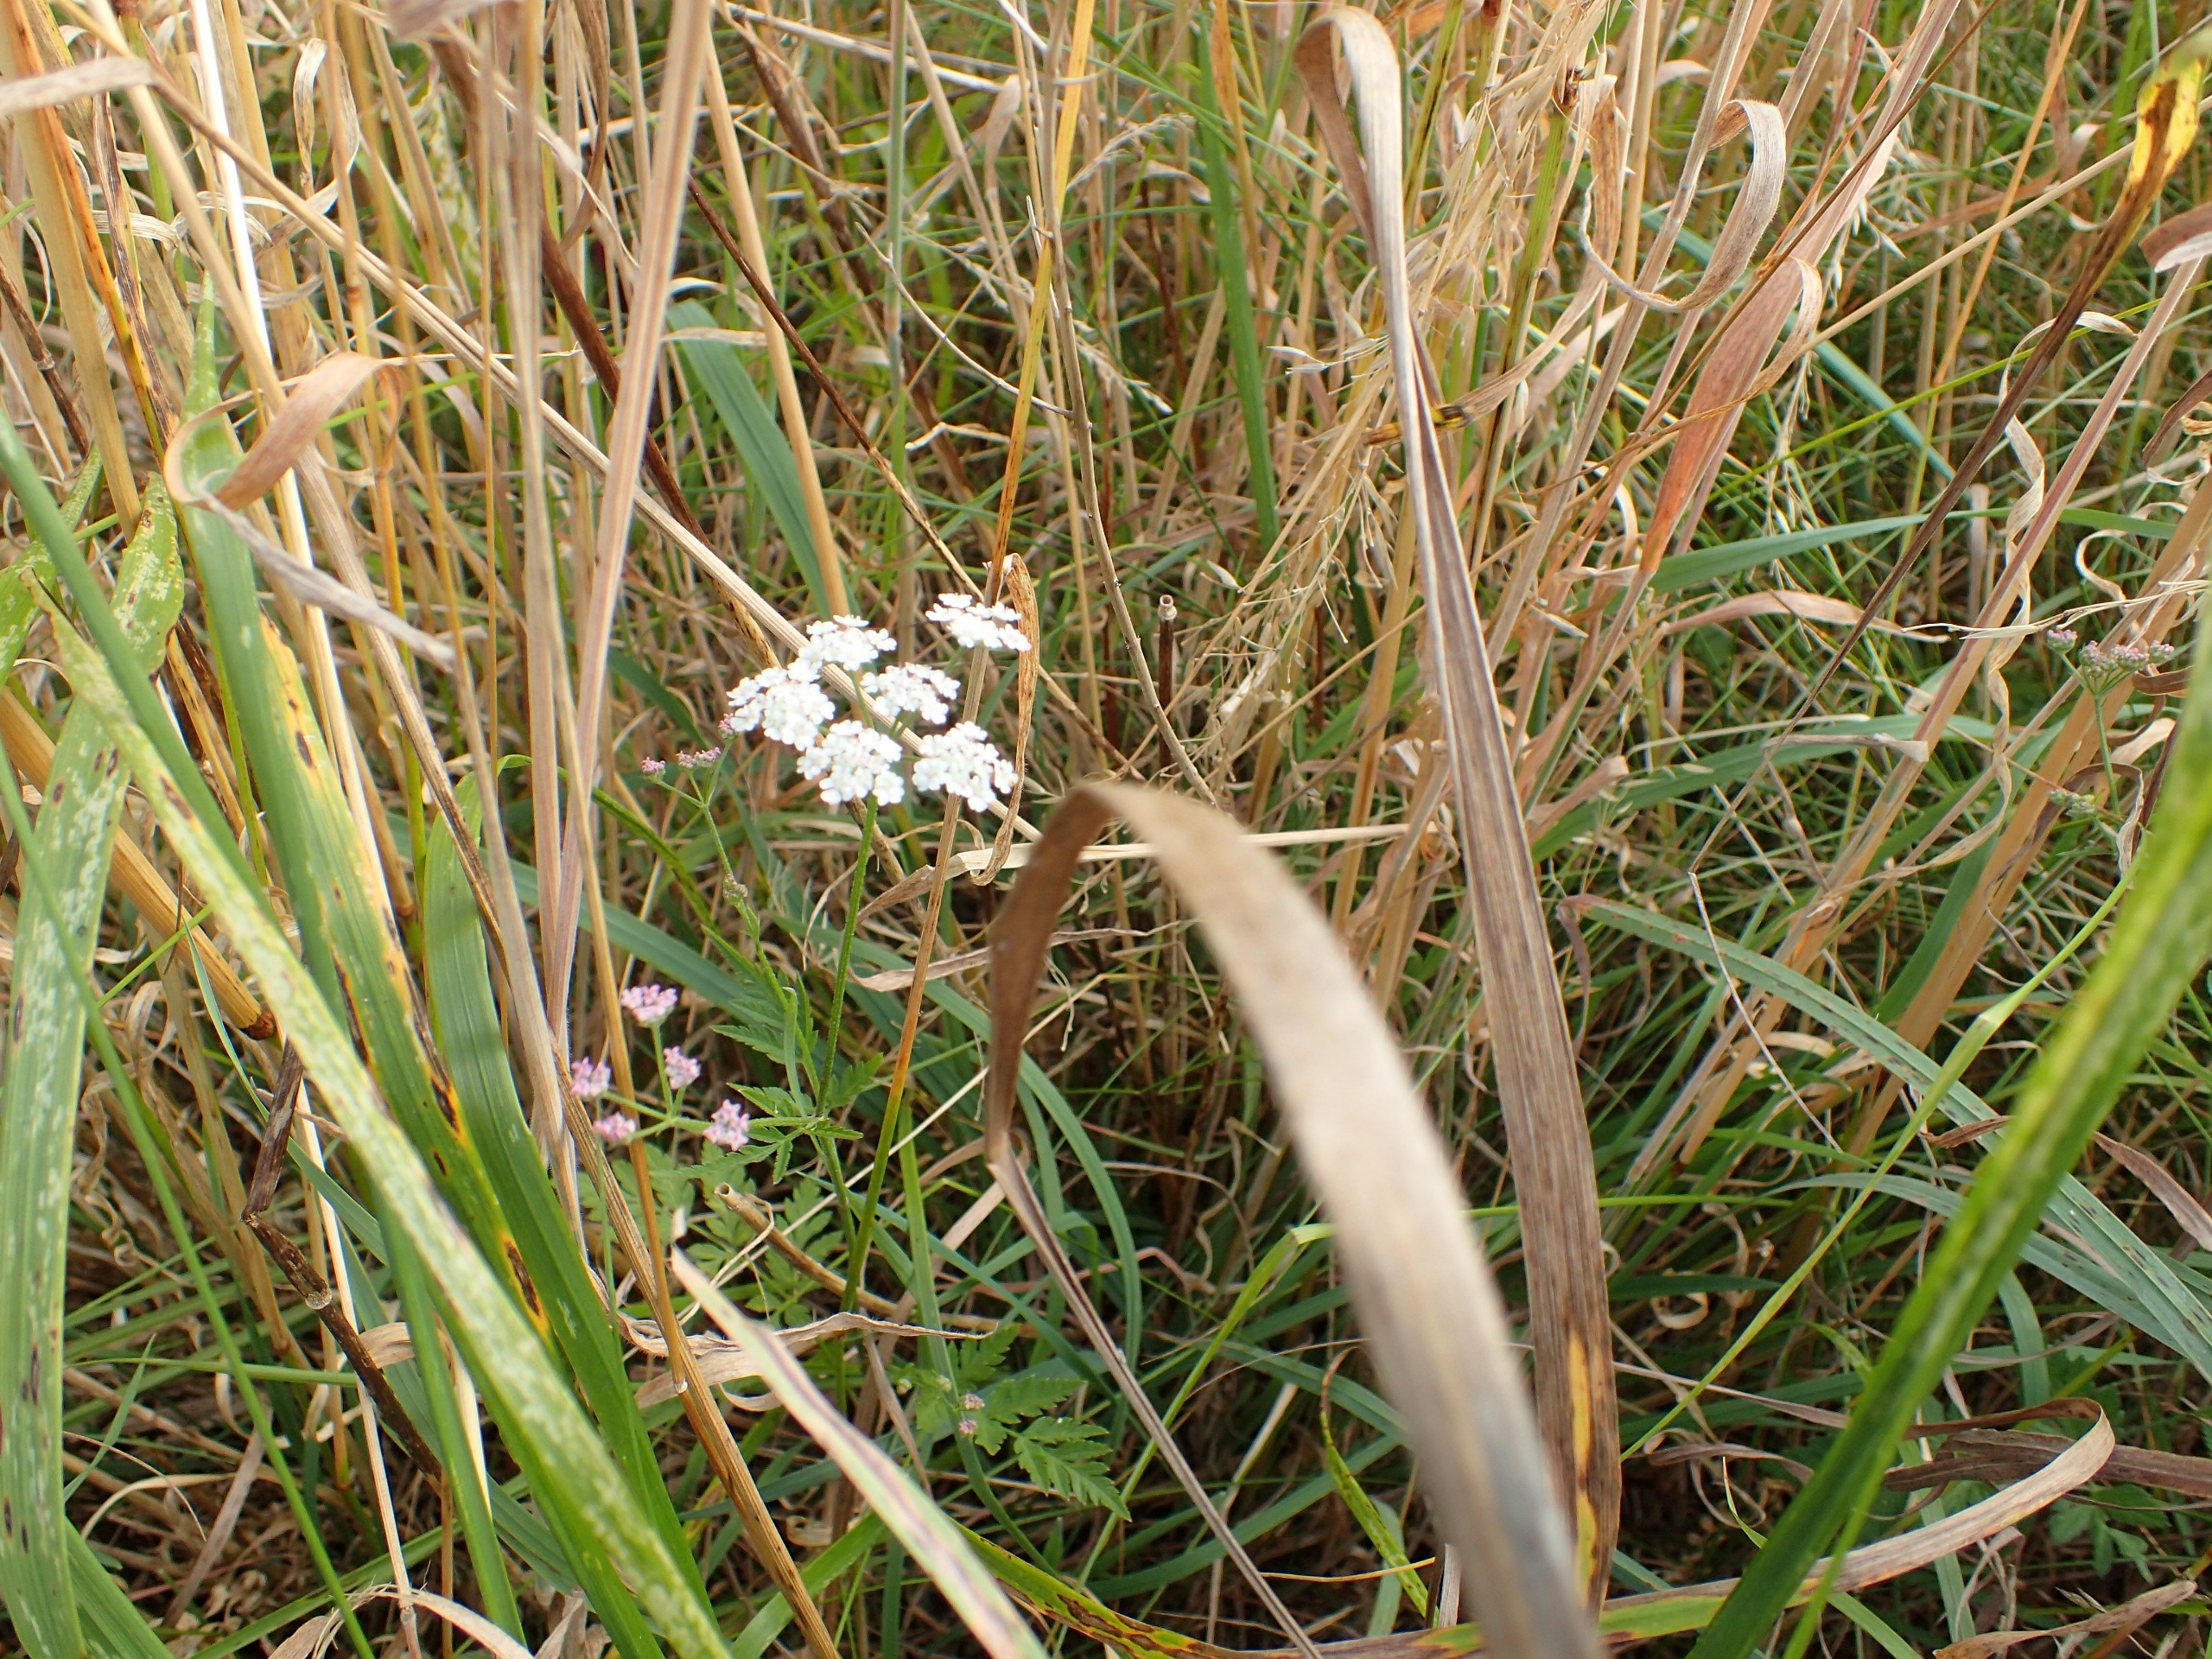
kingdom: Plantae
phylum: Tracheophyta
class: Magnoliopsida
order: Apiales
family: Apiaceae
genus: Torilis
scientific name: Torilis japonica
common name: Hvas randfrø
